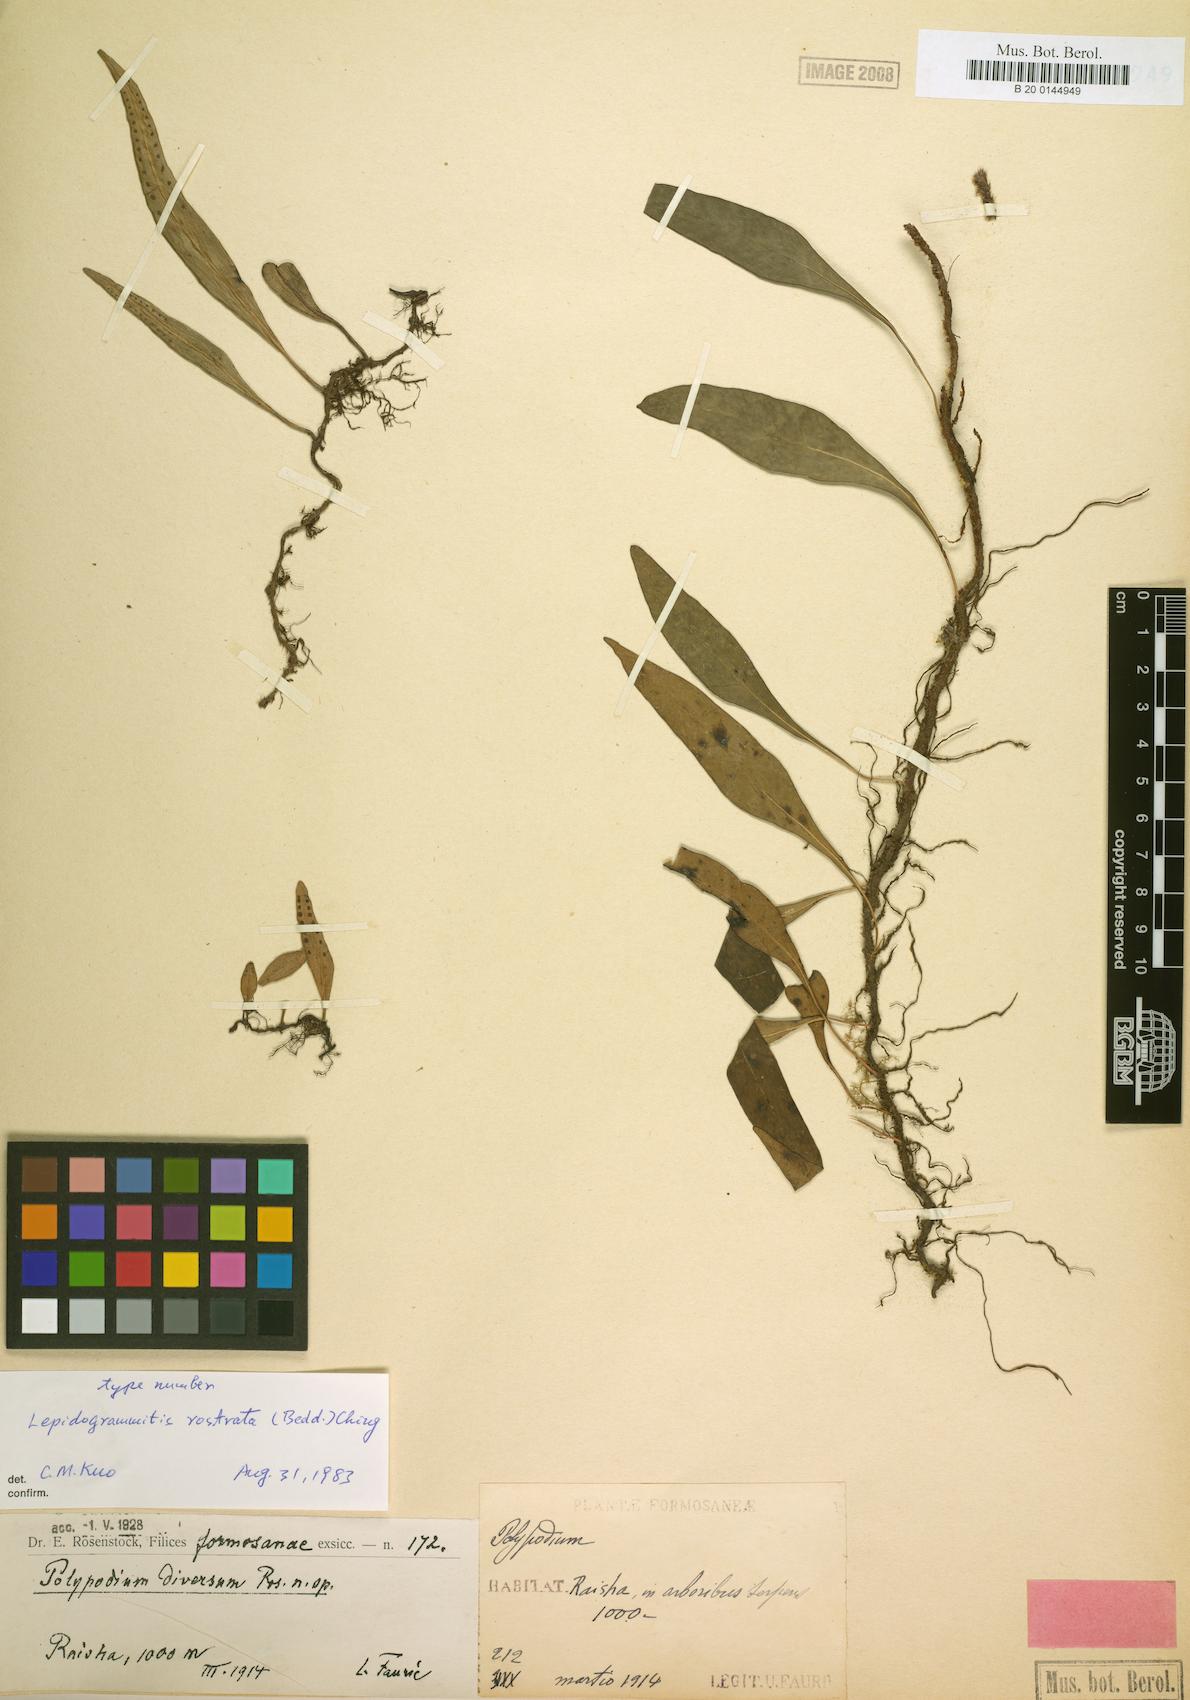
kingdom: Plantae
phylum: Tracheophyta
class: Polypodiopsida
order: Polypodiales
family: Polypodiaceae
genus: Lepisorus
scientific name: Lepisorus rostratus
